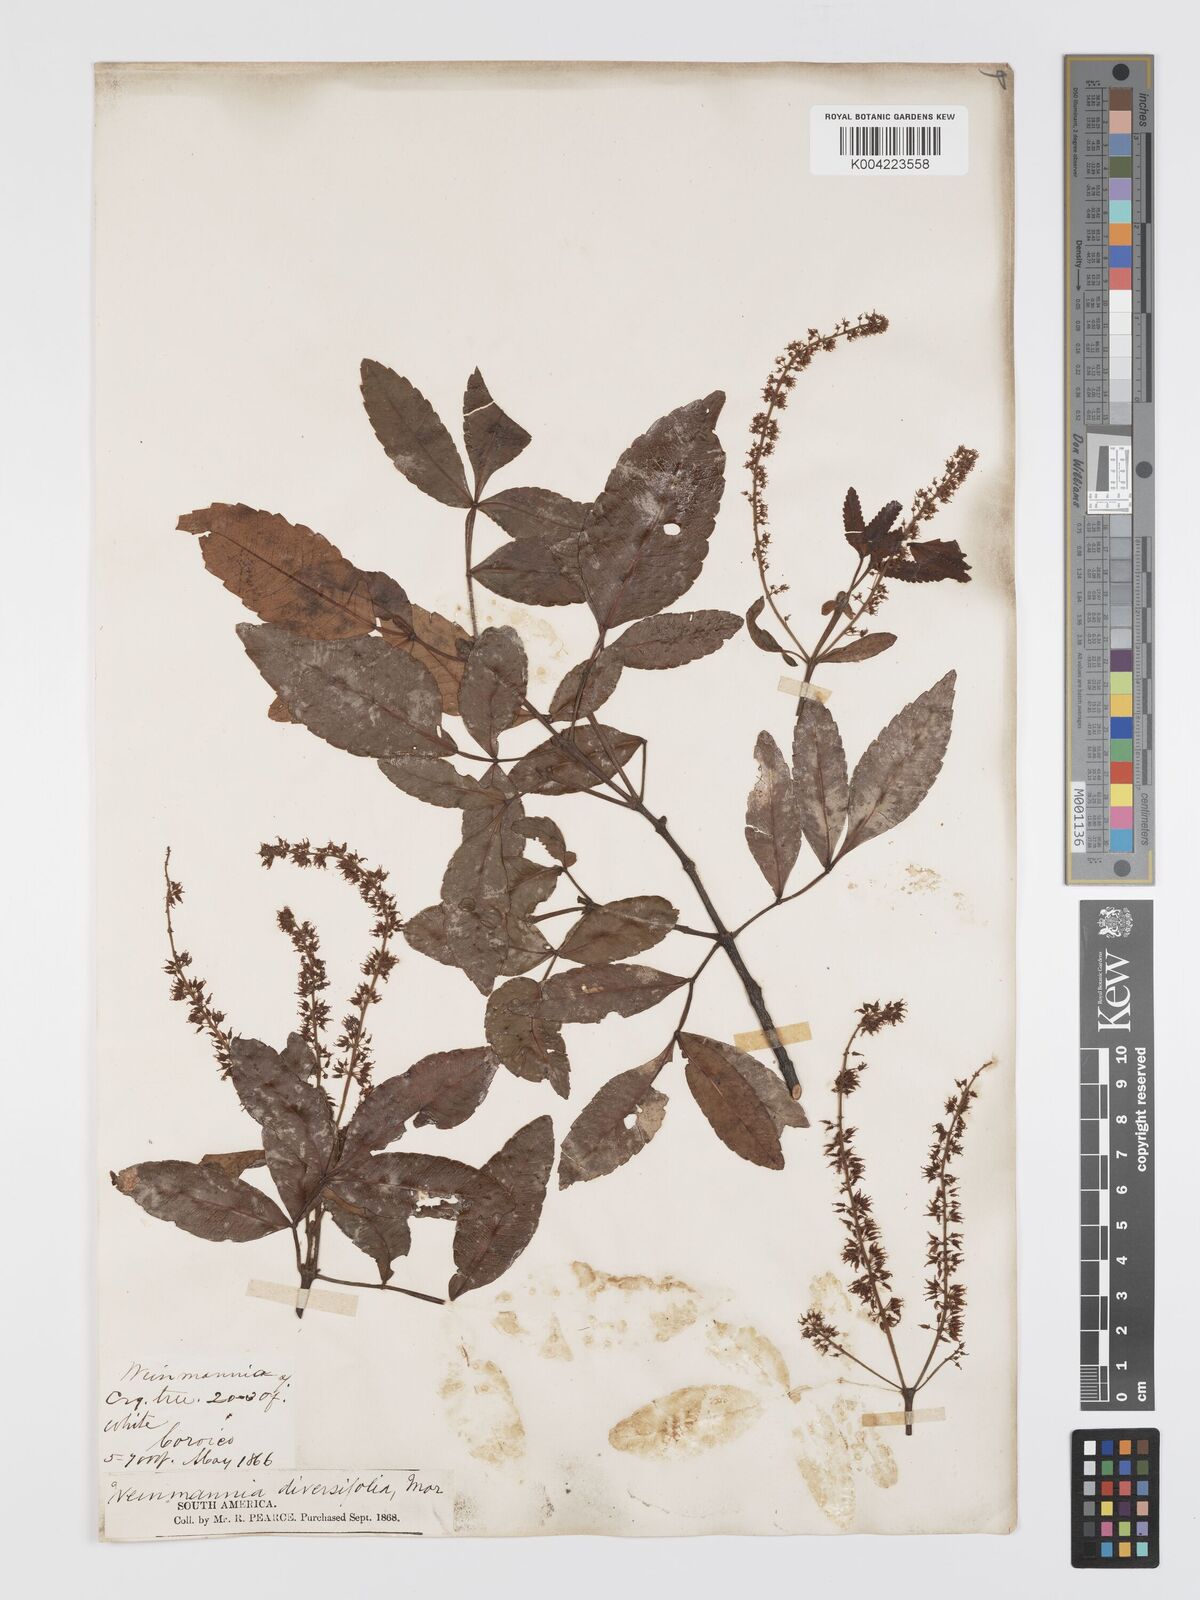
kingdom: Plantae
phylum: Tracheophyta
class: Magnoliopsida
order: Oxalidales
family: Cunoniaceae
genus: Weinmannia
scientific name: Weinmannia cinerea
